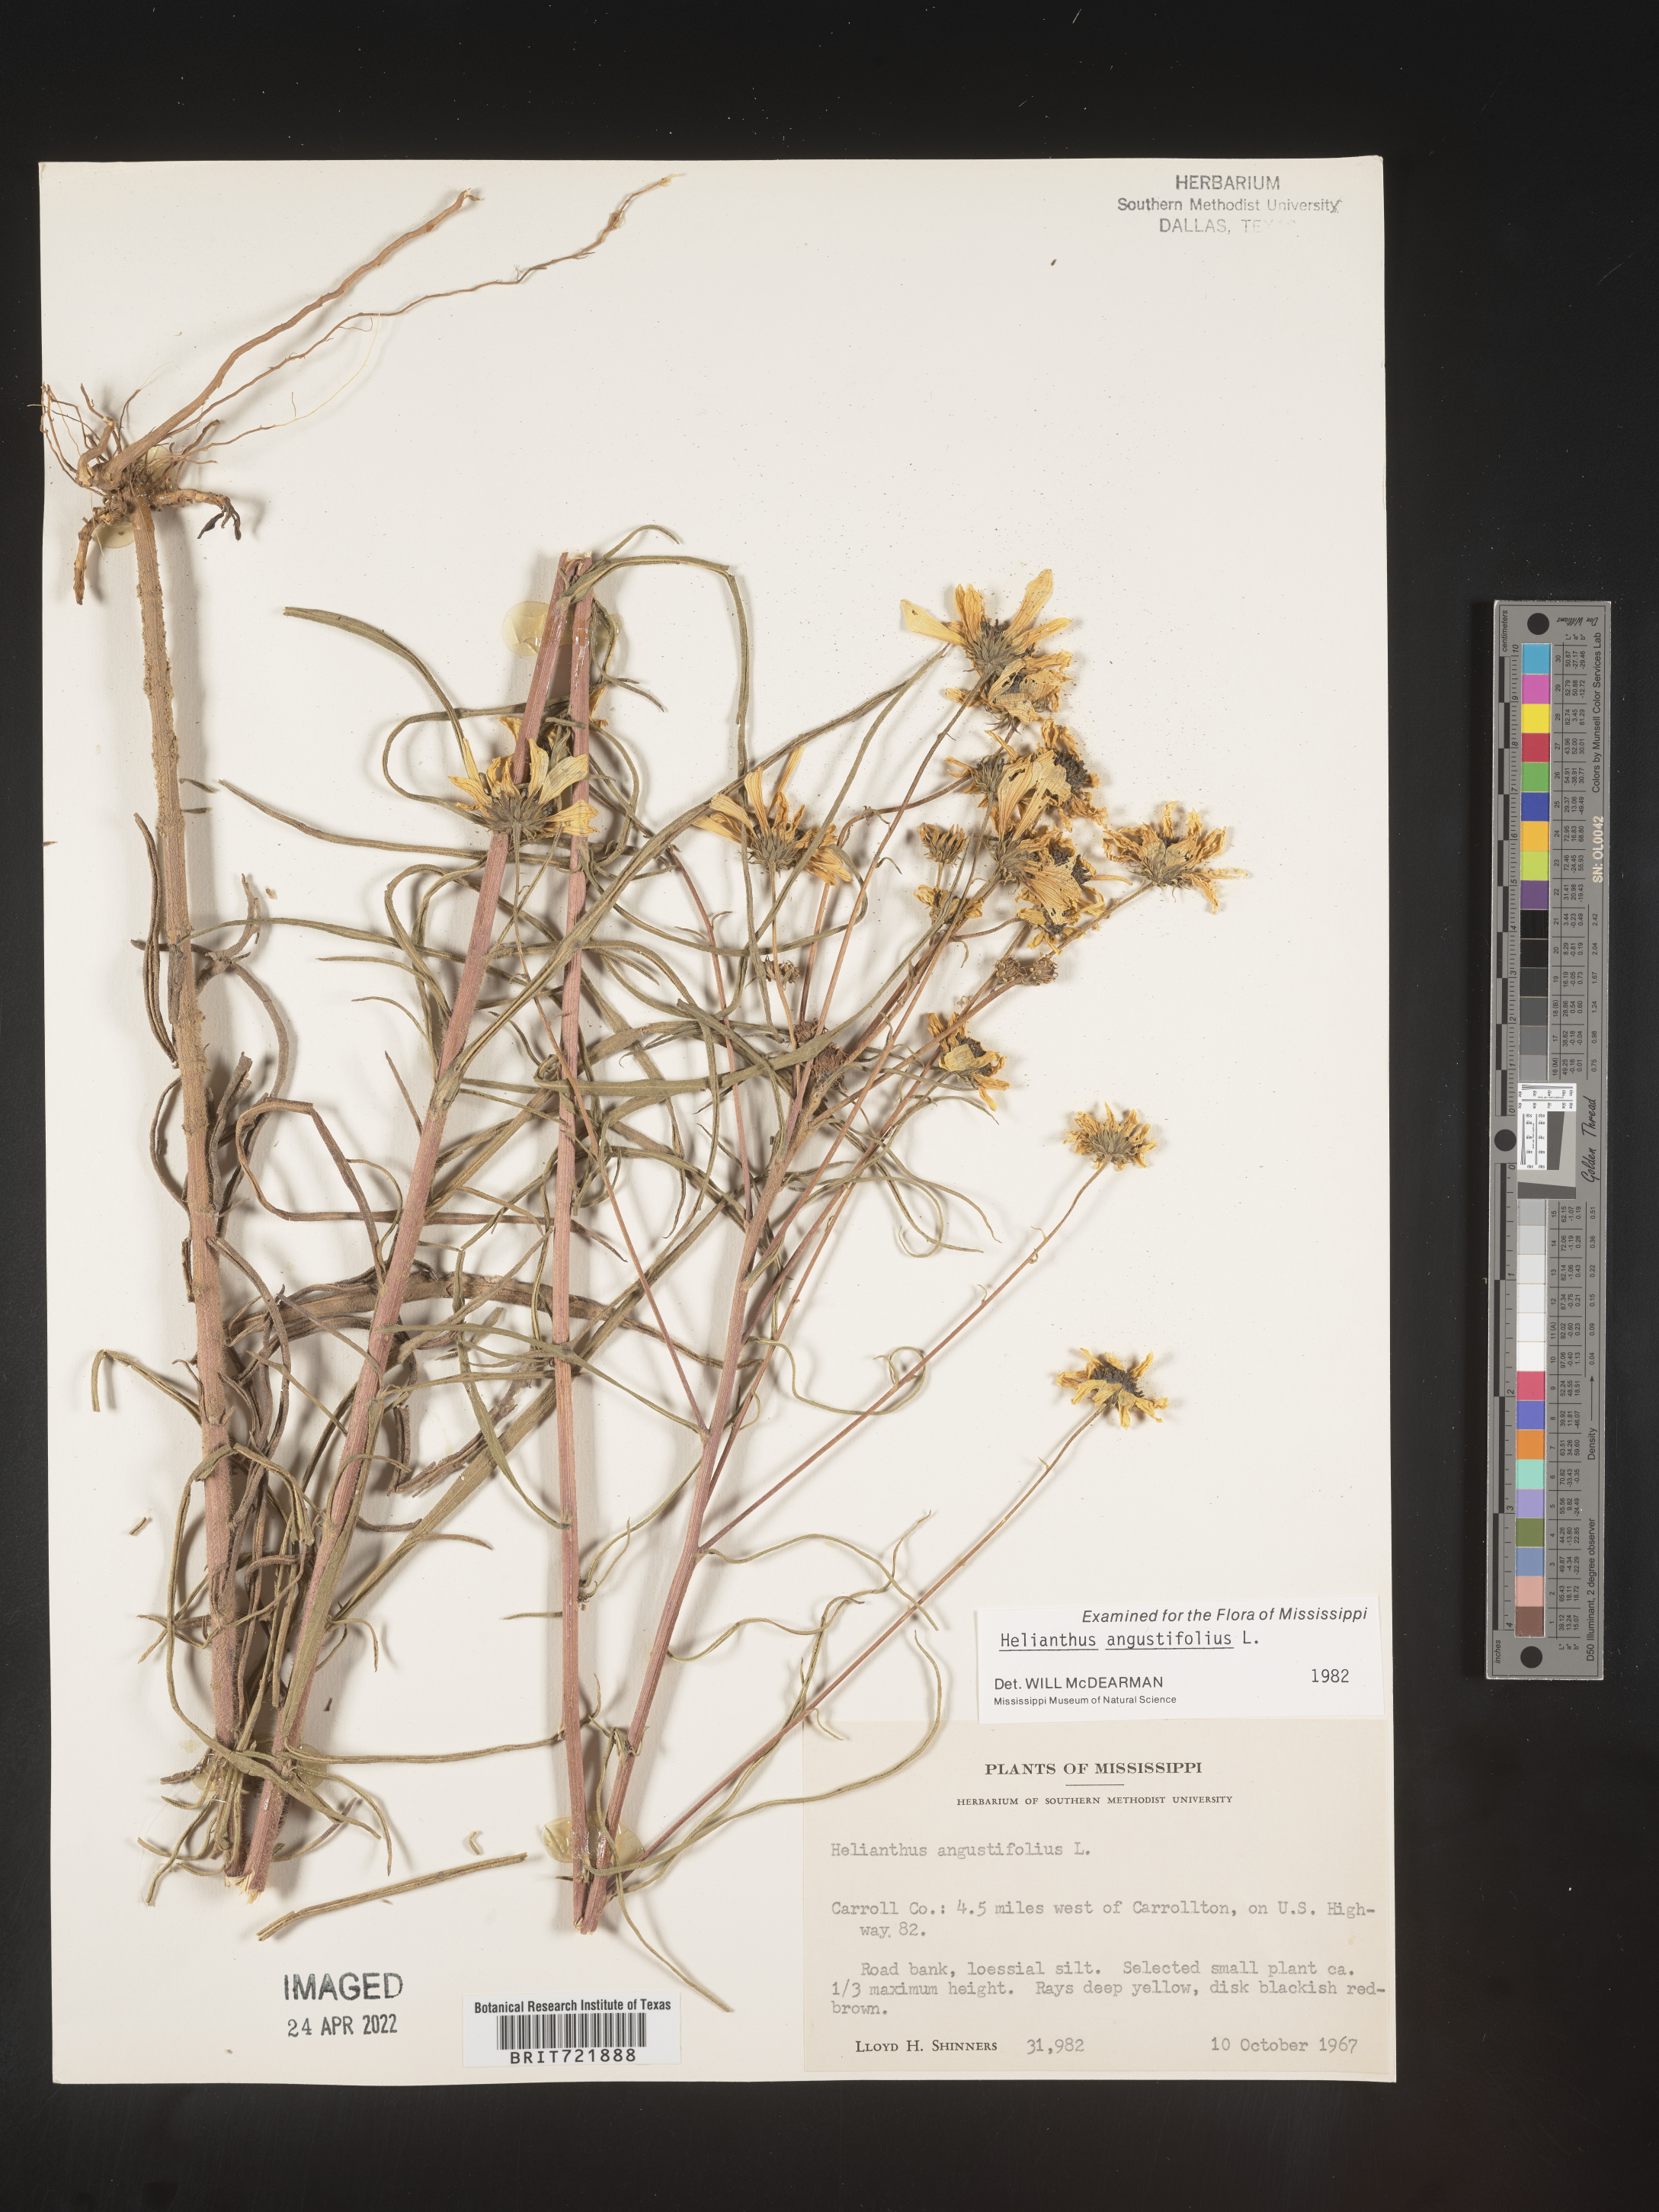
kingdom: Plantae
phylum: Tracheophyta
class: Magnoliopsida
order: Asterales
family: Asteraceae
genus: Helianthus
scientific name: Helianthus angustifolius
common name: Swamp sunflower
